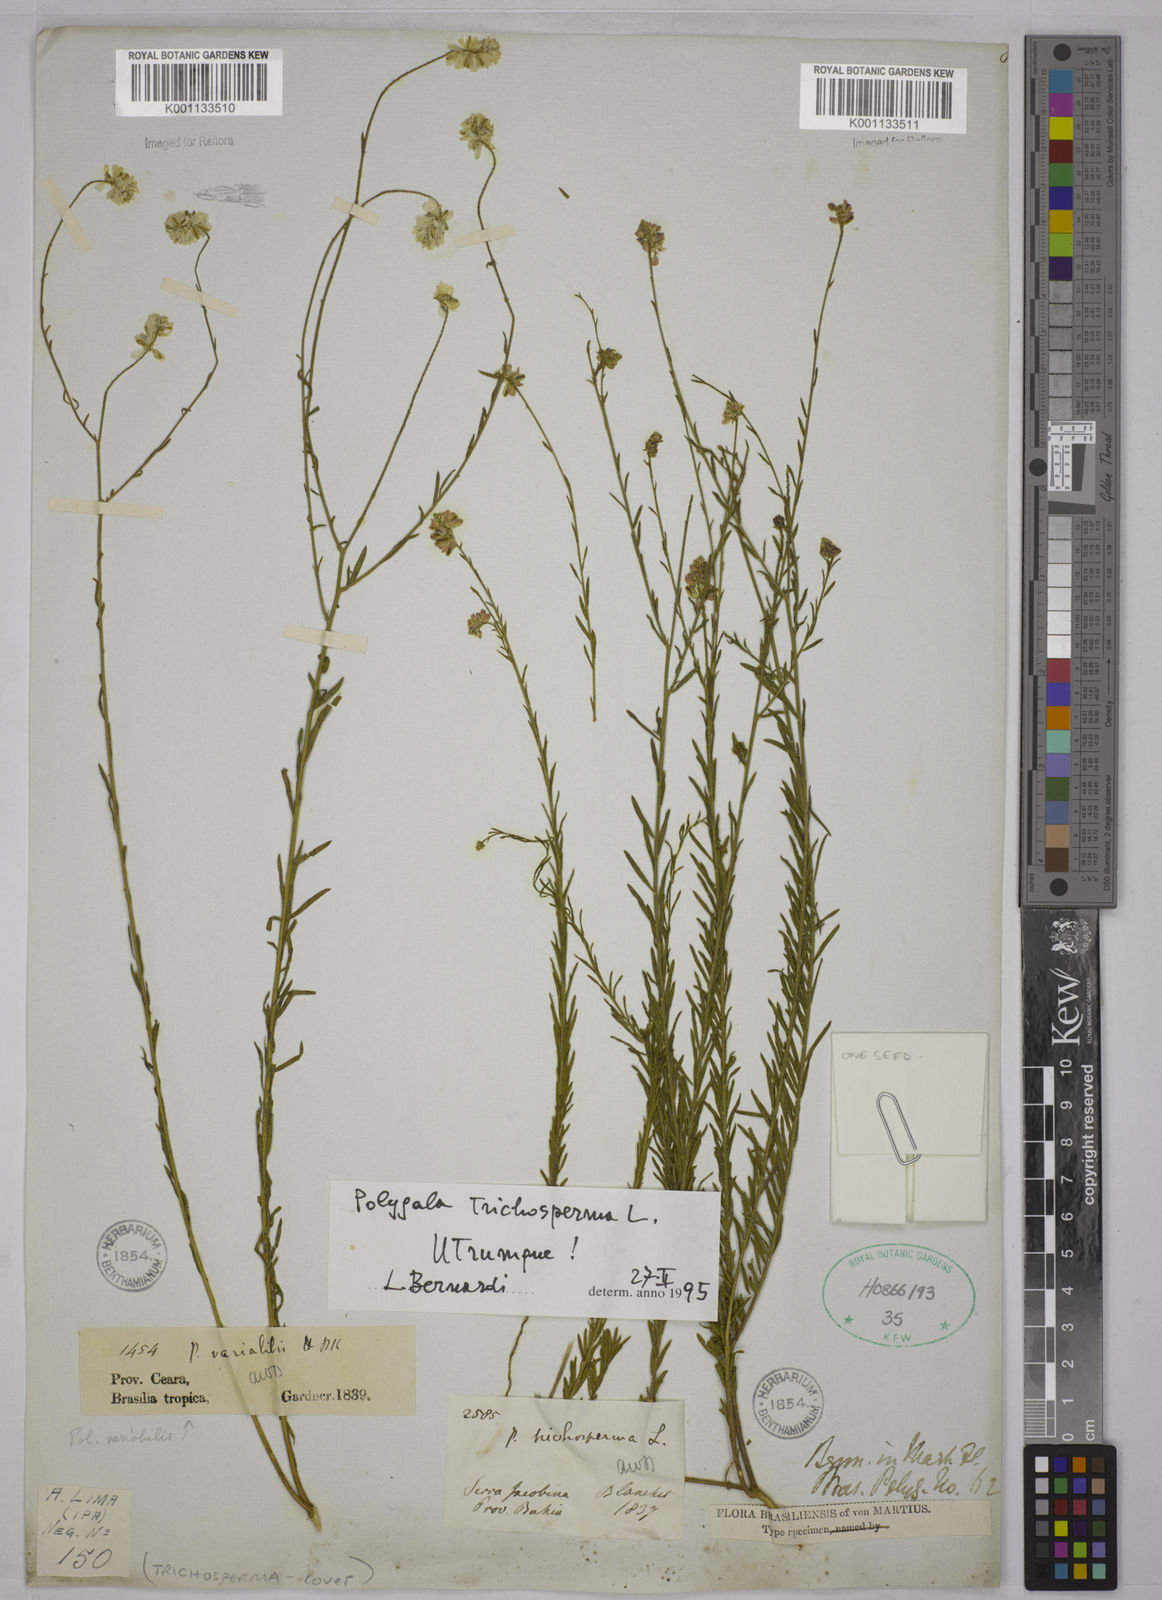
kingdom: Plantae
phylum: Tracheophyta
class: Magnoliopsida
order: Fabales
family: Polygalaceae
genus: Polygala
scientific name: Polygala trichosperma
